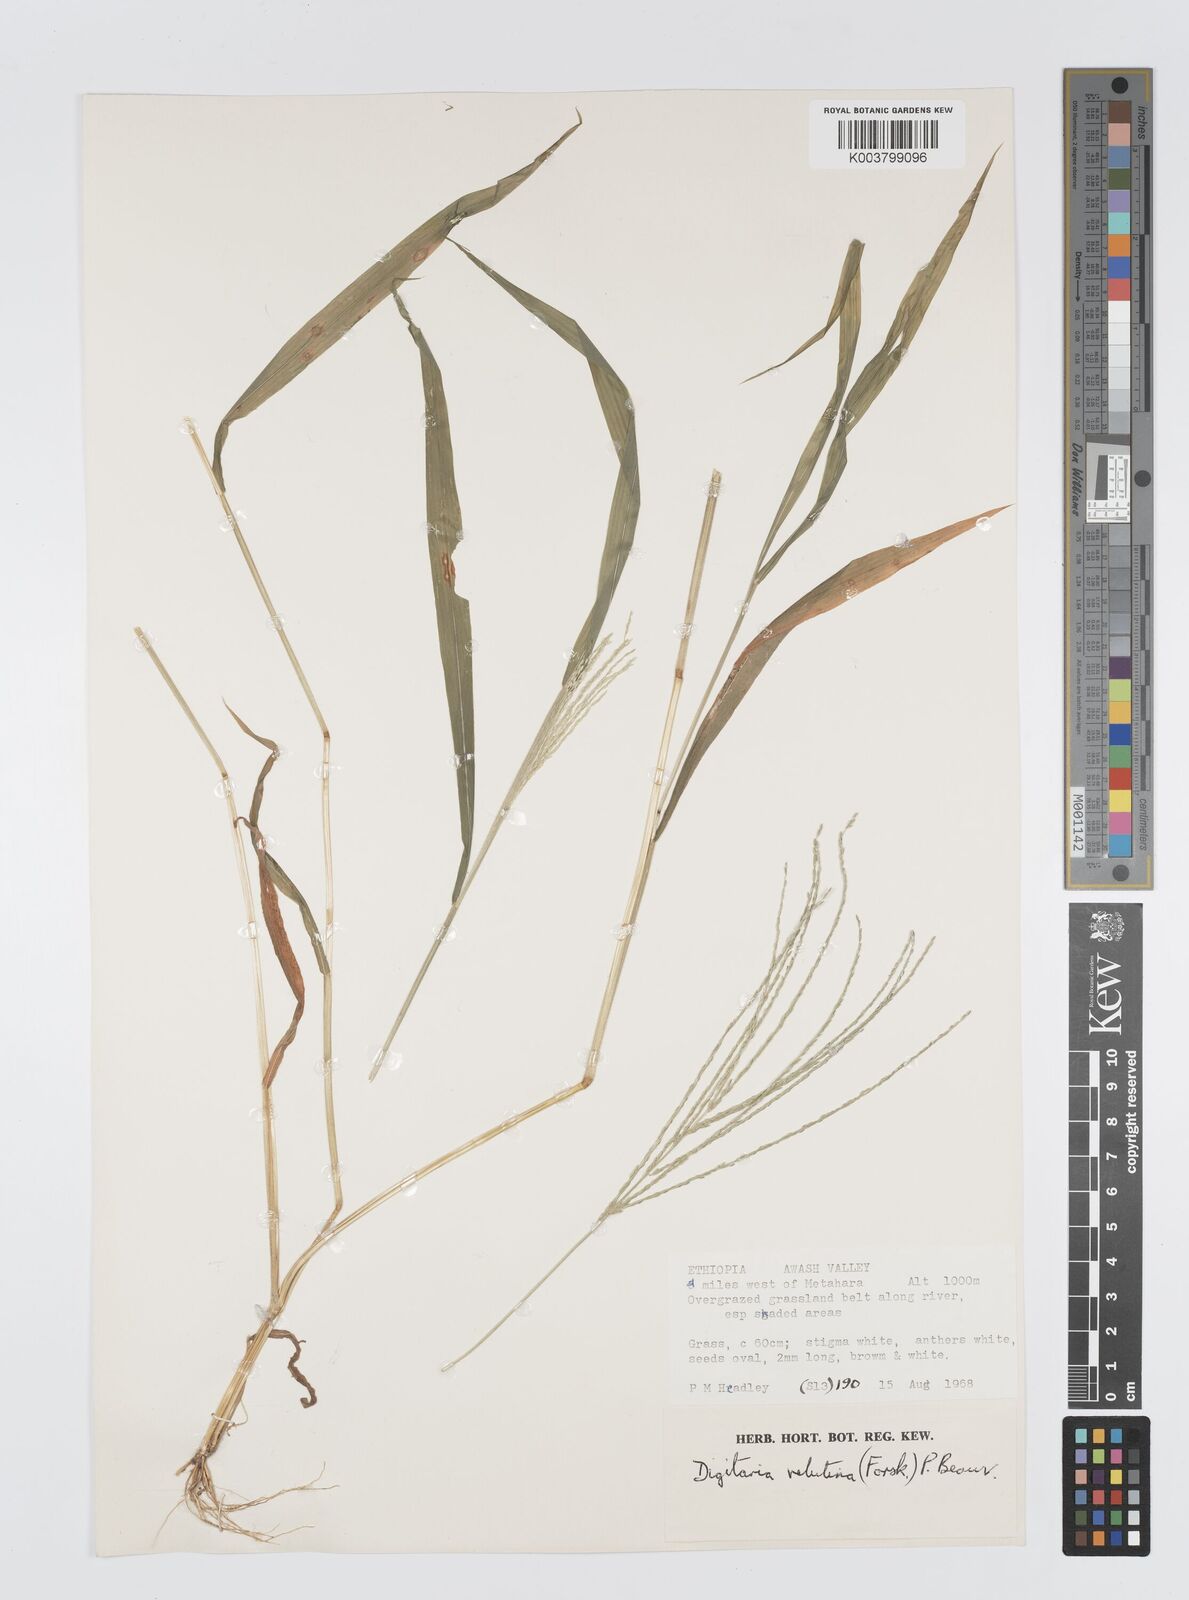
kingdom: Plantae
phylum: Tracheophyta
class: Liliopsida
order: Poales
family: Poaceae
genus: Digitaria
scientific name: Digitaria velutina
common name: Long-plume finger grass
